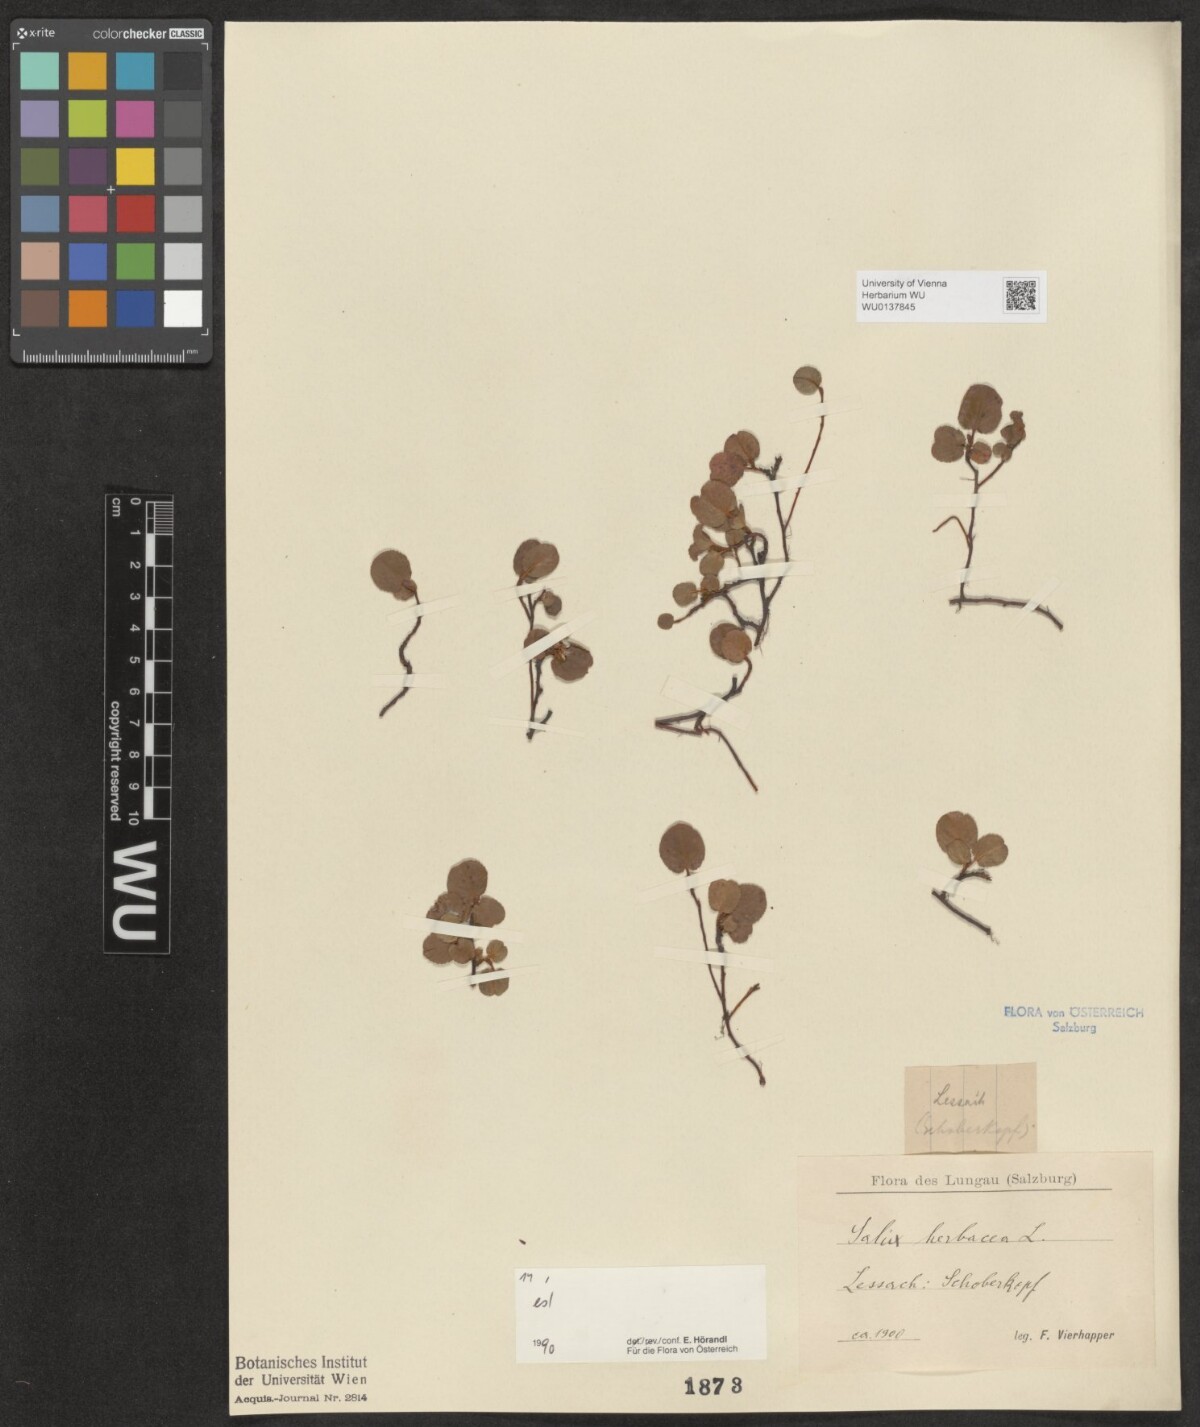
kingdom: Plantae
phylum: Tracheophyta
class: Magnoliopsida
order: Malpighiales
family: Salicaceae
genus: Salix
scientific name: Salix herbacea
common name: Dwarf willow
